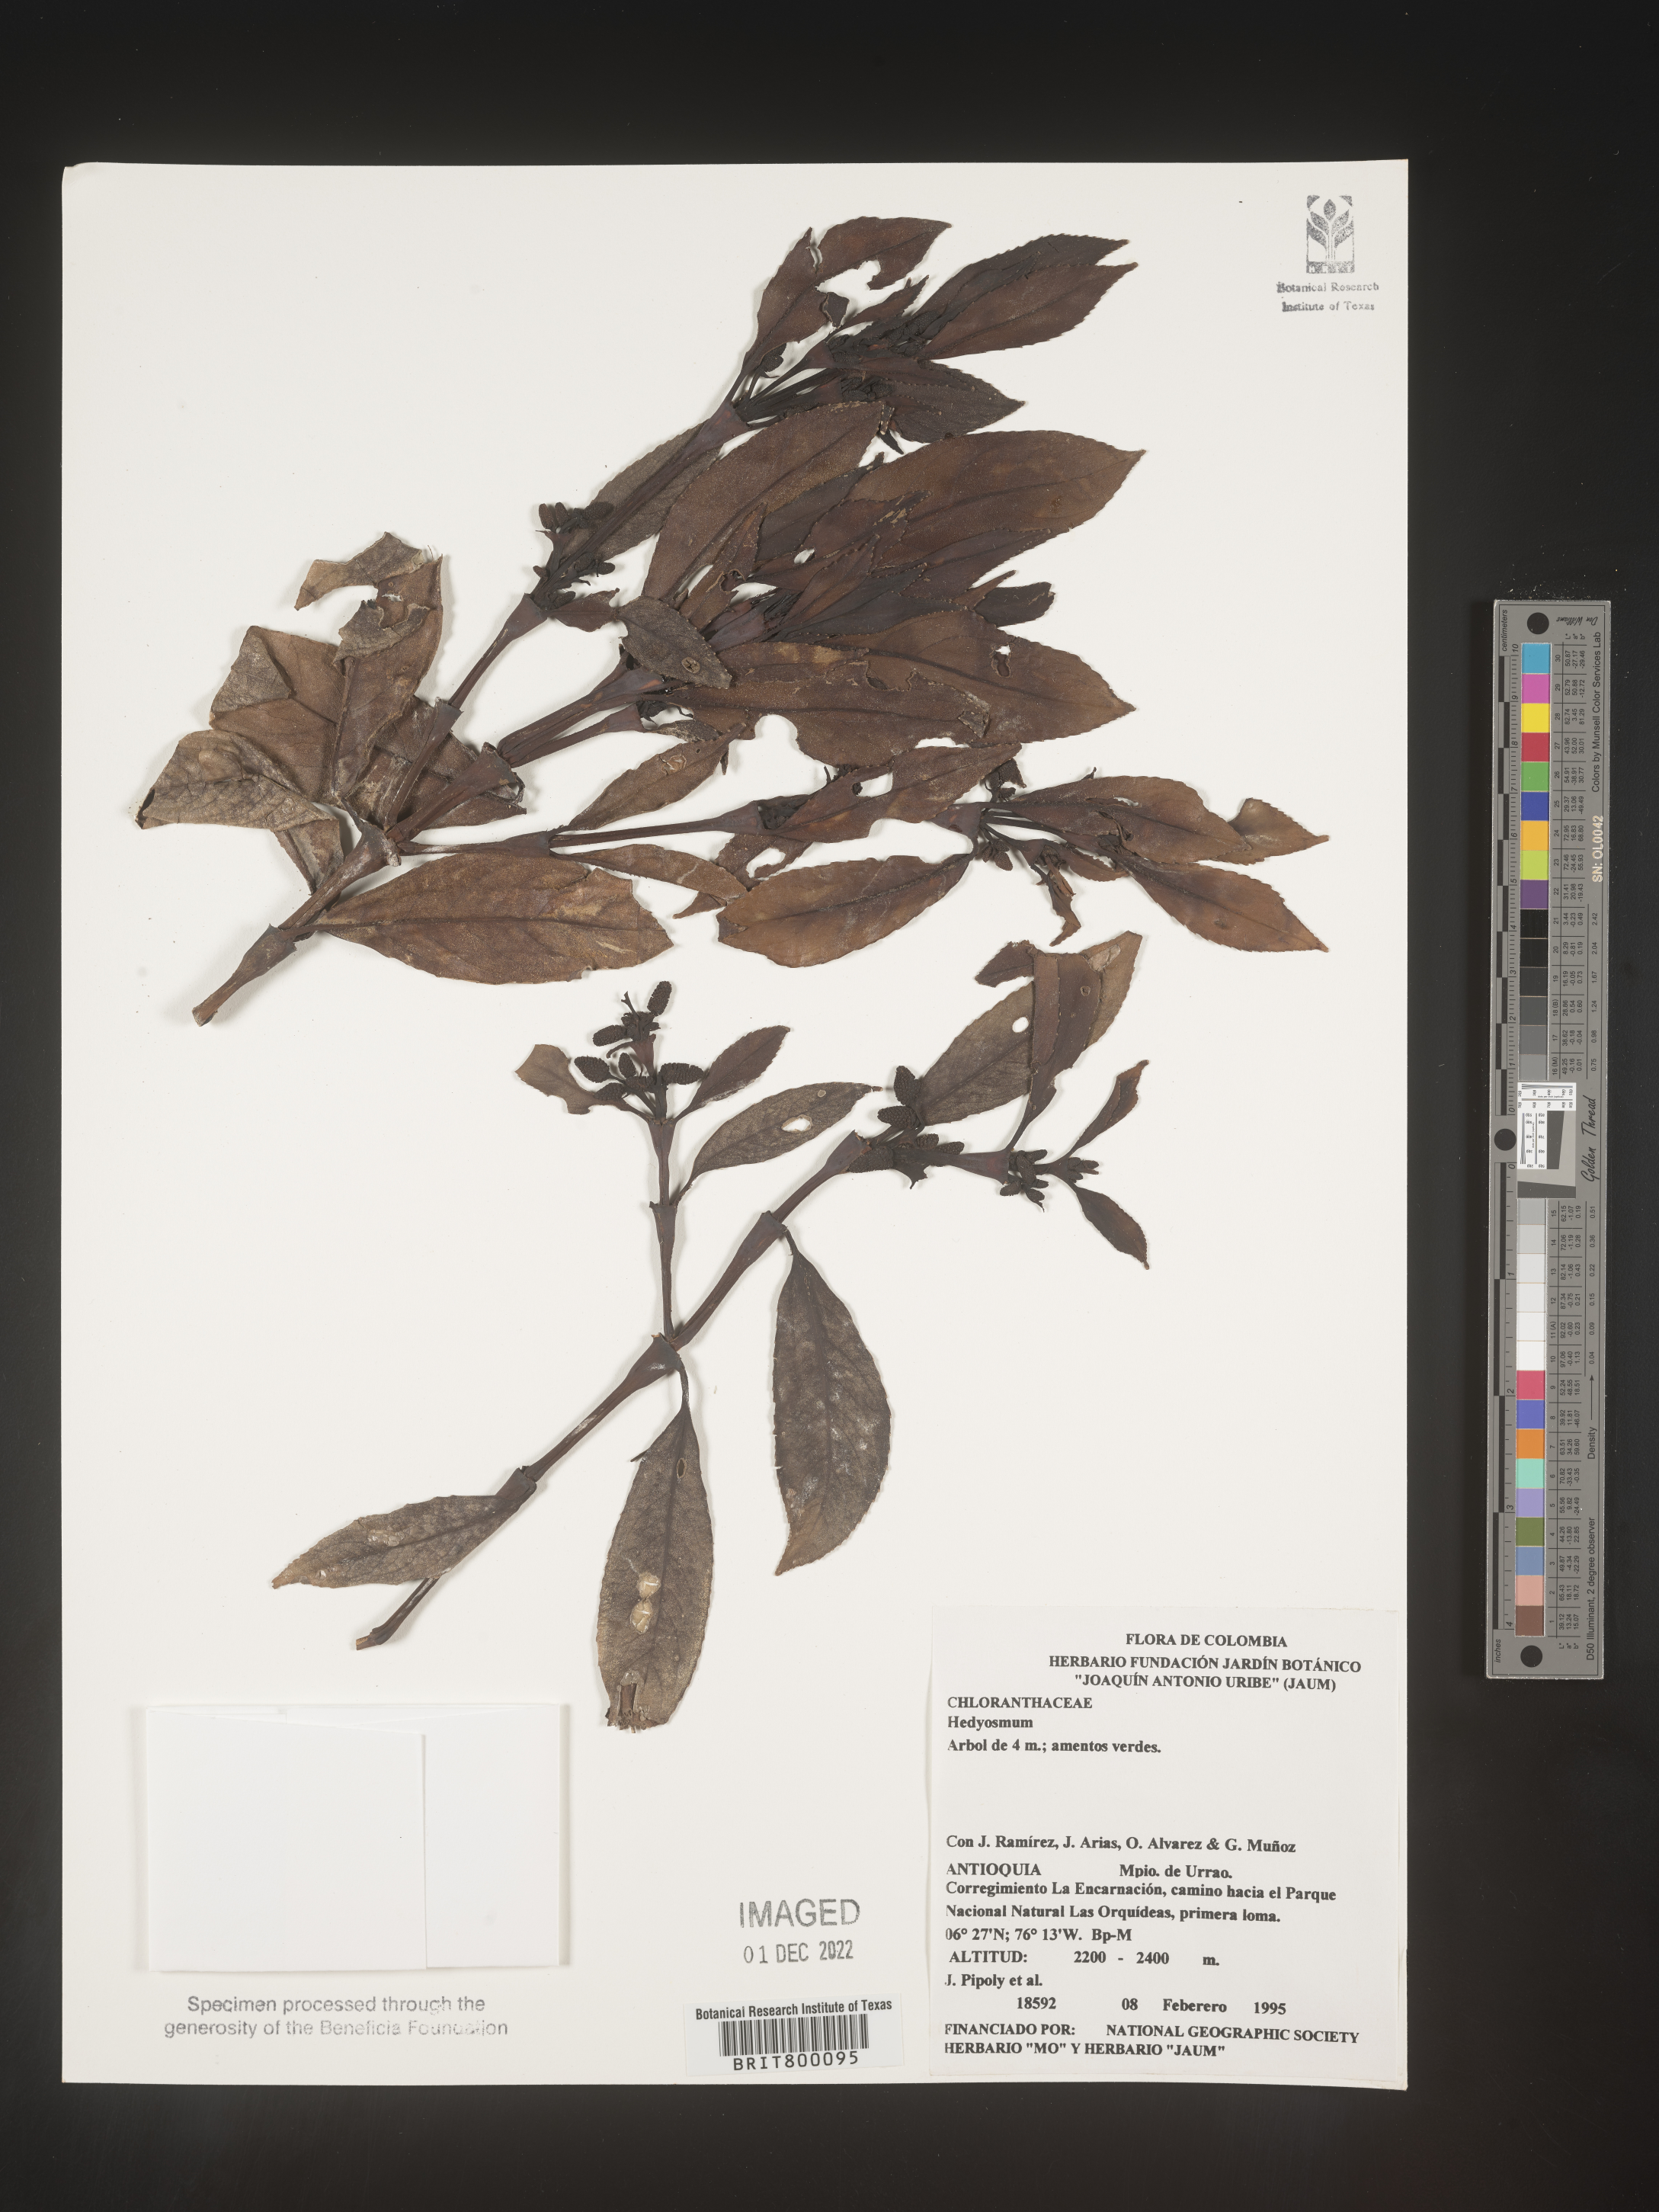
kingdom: Plantae
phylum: Tracheophyta
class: Magnoliopsida
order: Chloranthales
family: Chloranthaceae
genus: Hedyosmum
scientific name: Hedyosmum
